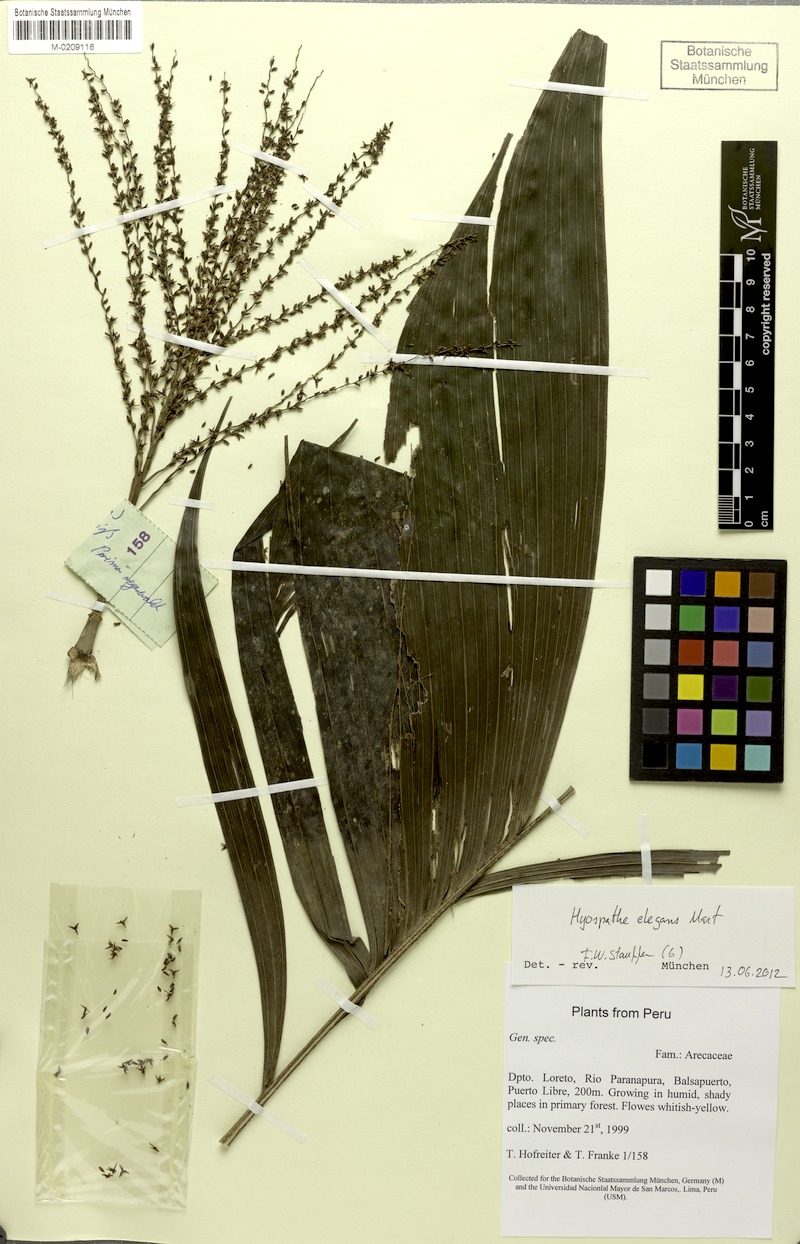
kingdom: Plantae
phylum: Tracheophyta
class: Liliopsida
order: Arecales
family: Arecaceae
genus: Hyospathe
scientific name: Hyospathe elegans
